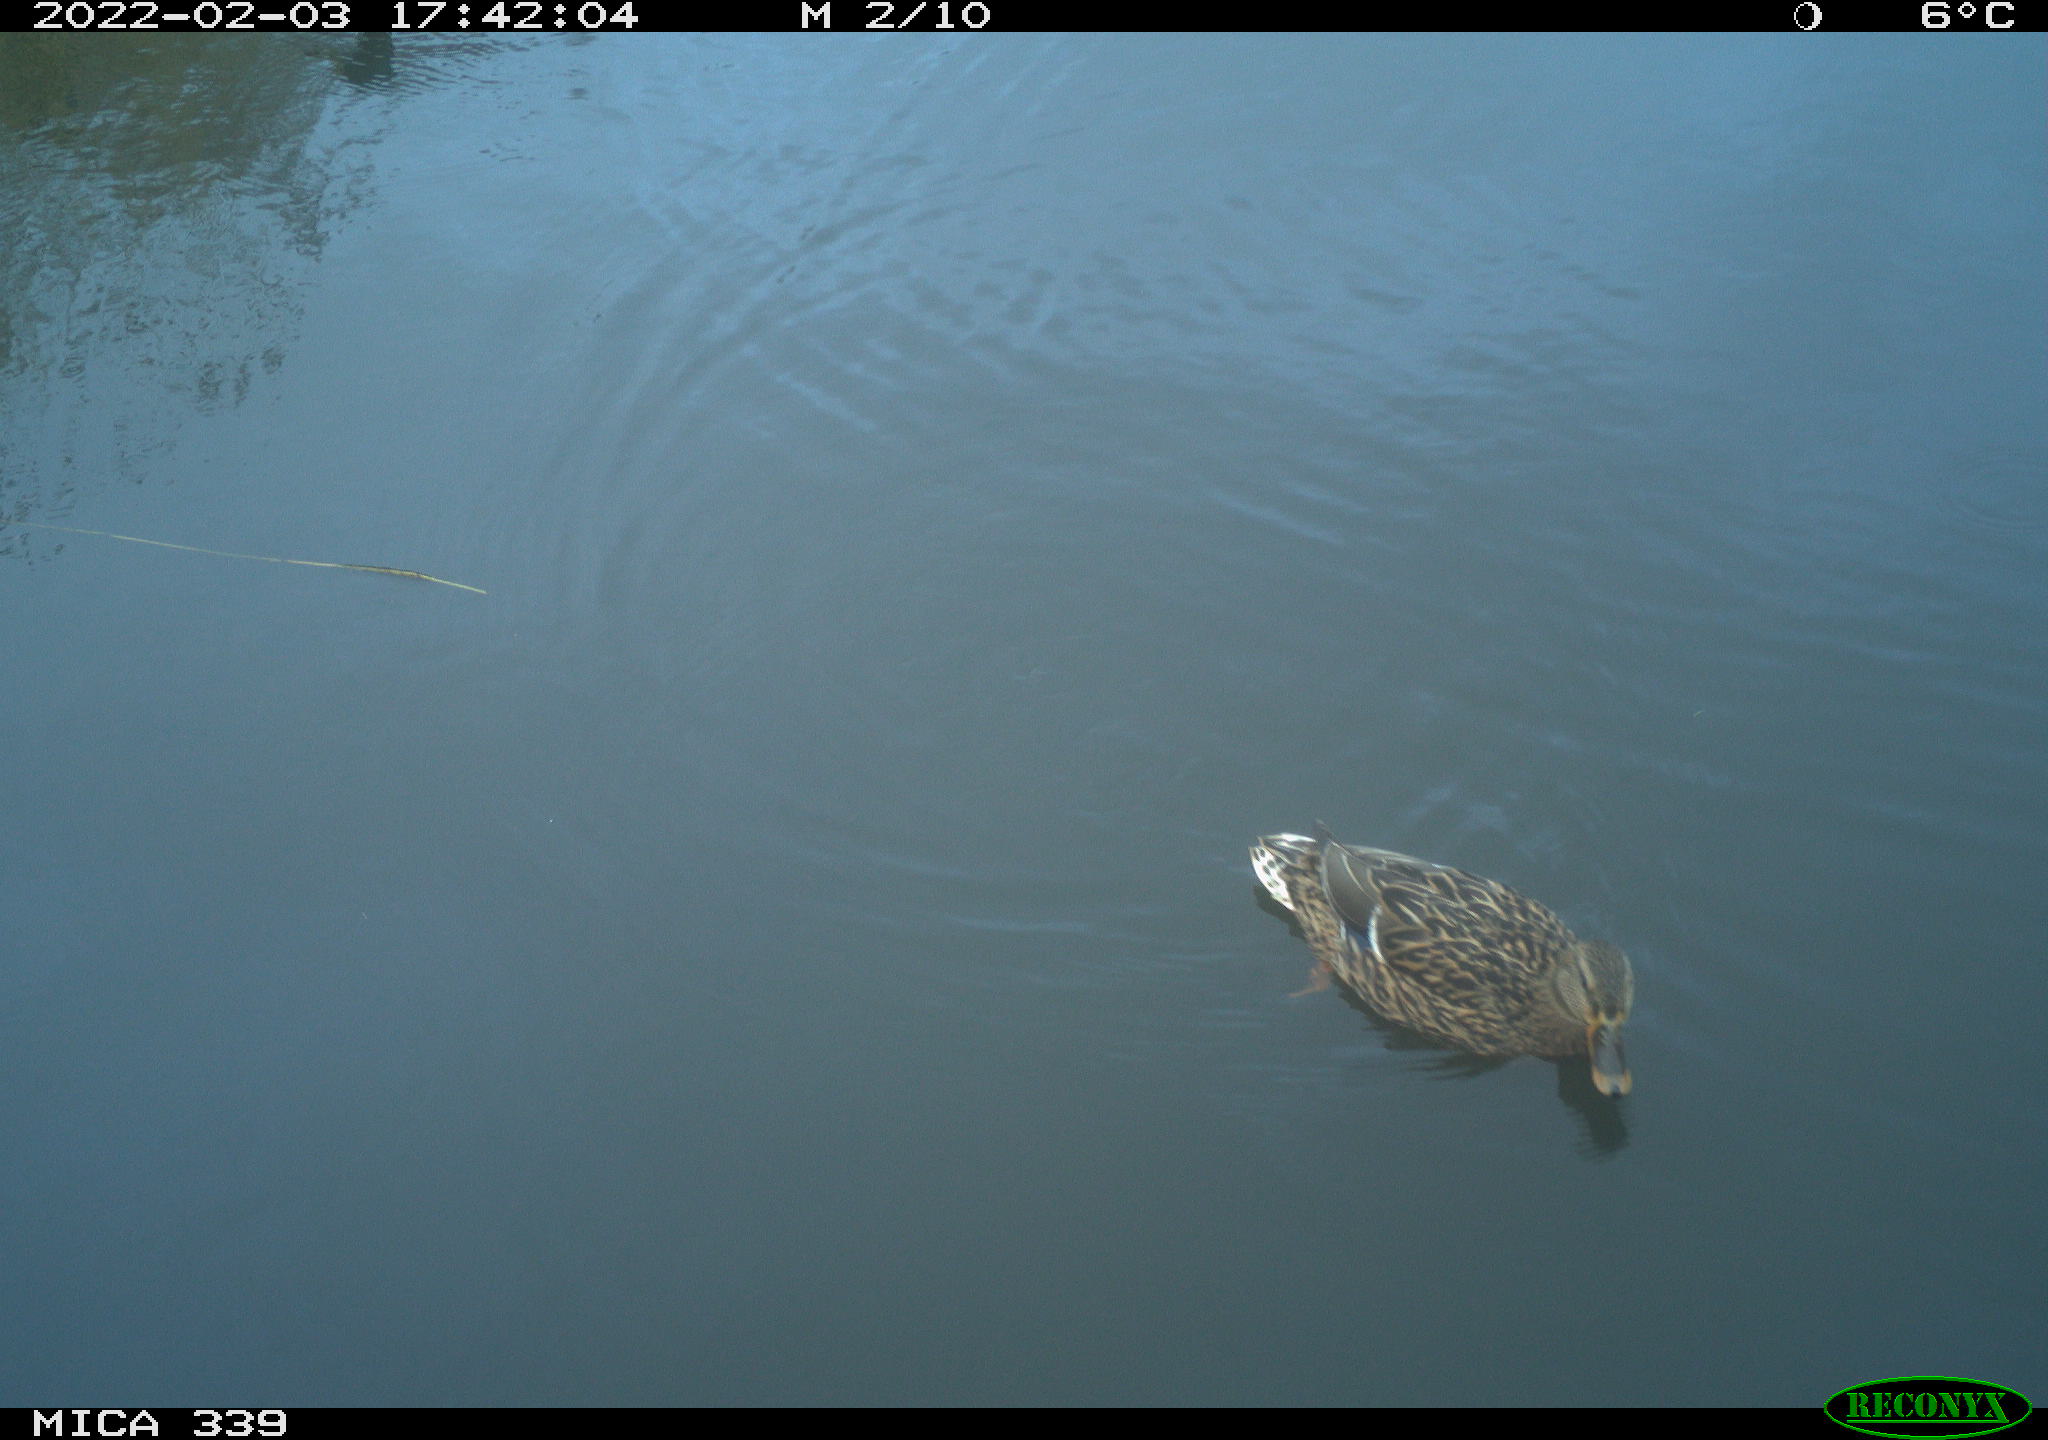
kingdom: Animalia
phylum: Chordata
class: Aves
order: Anseriformes
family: Anatidae
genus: Anas
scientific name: Anas platyrhynchos
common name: Mallard
